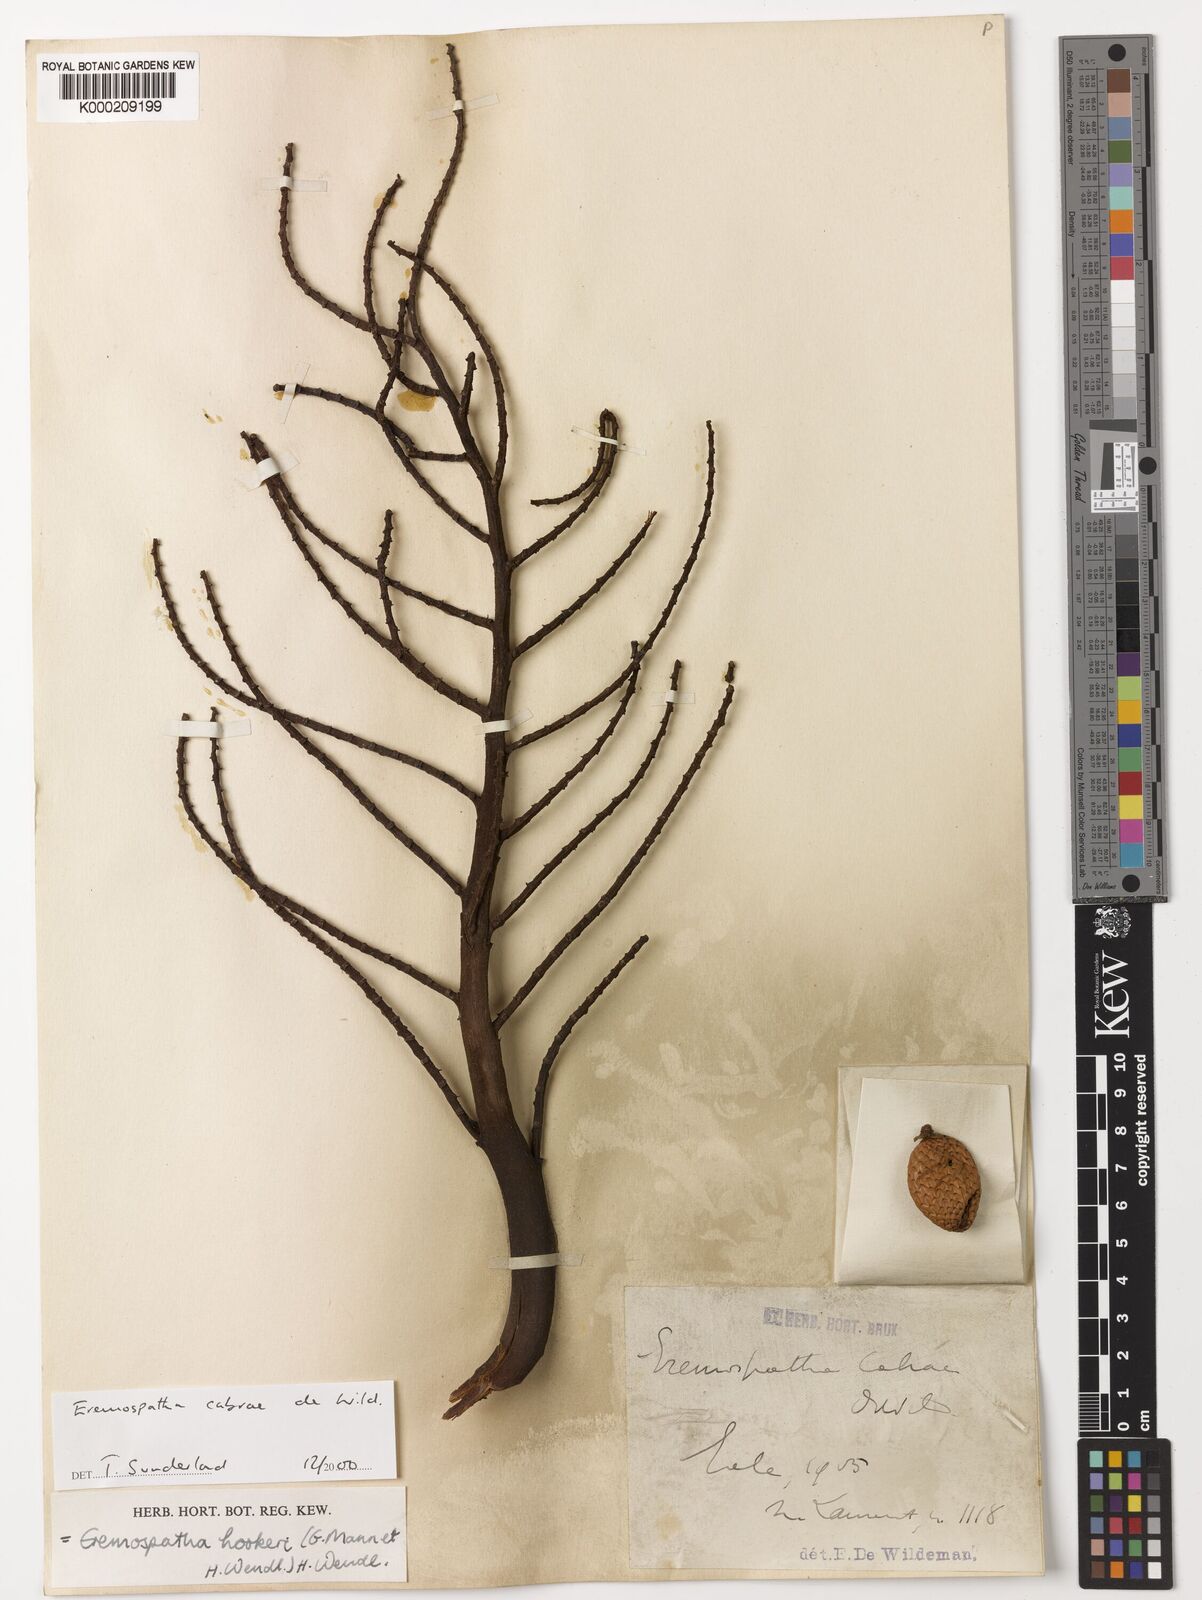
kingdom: Plantae
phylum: Tracheophyta
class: Liliopsida
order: Arecales
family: Arecaceae
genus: Eremospatha
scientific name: Eremospatha cabrae
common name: Rattan
